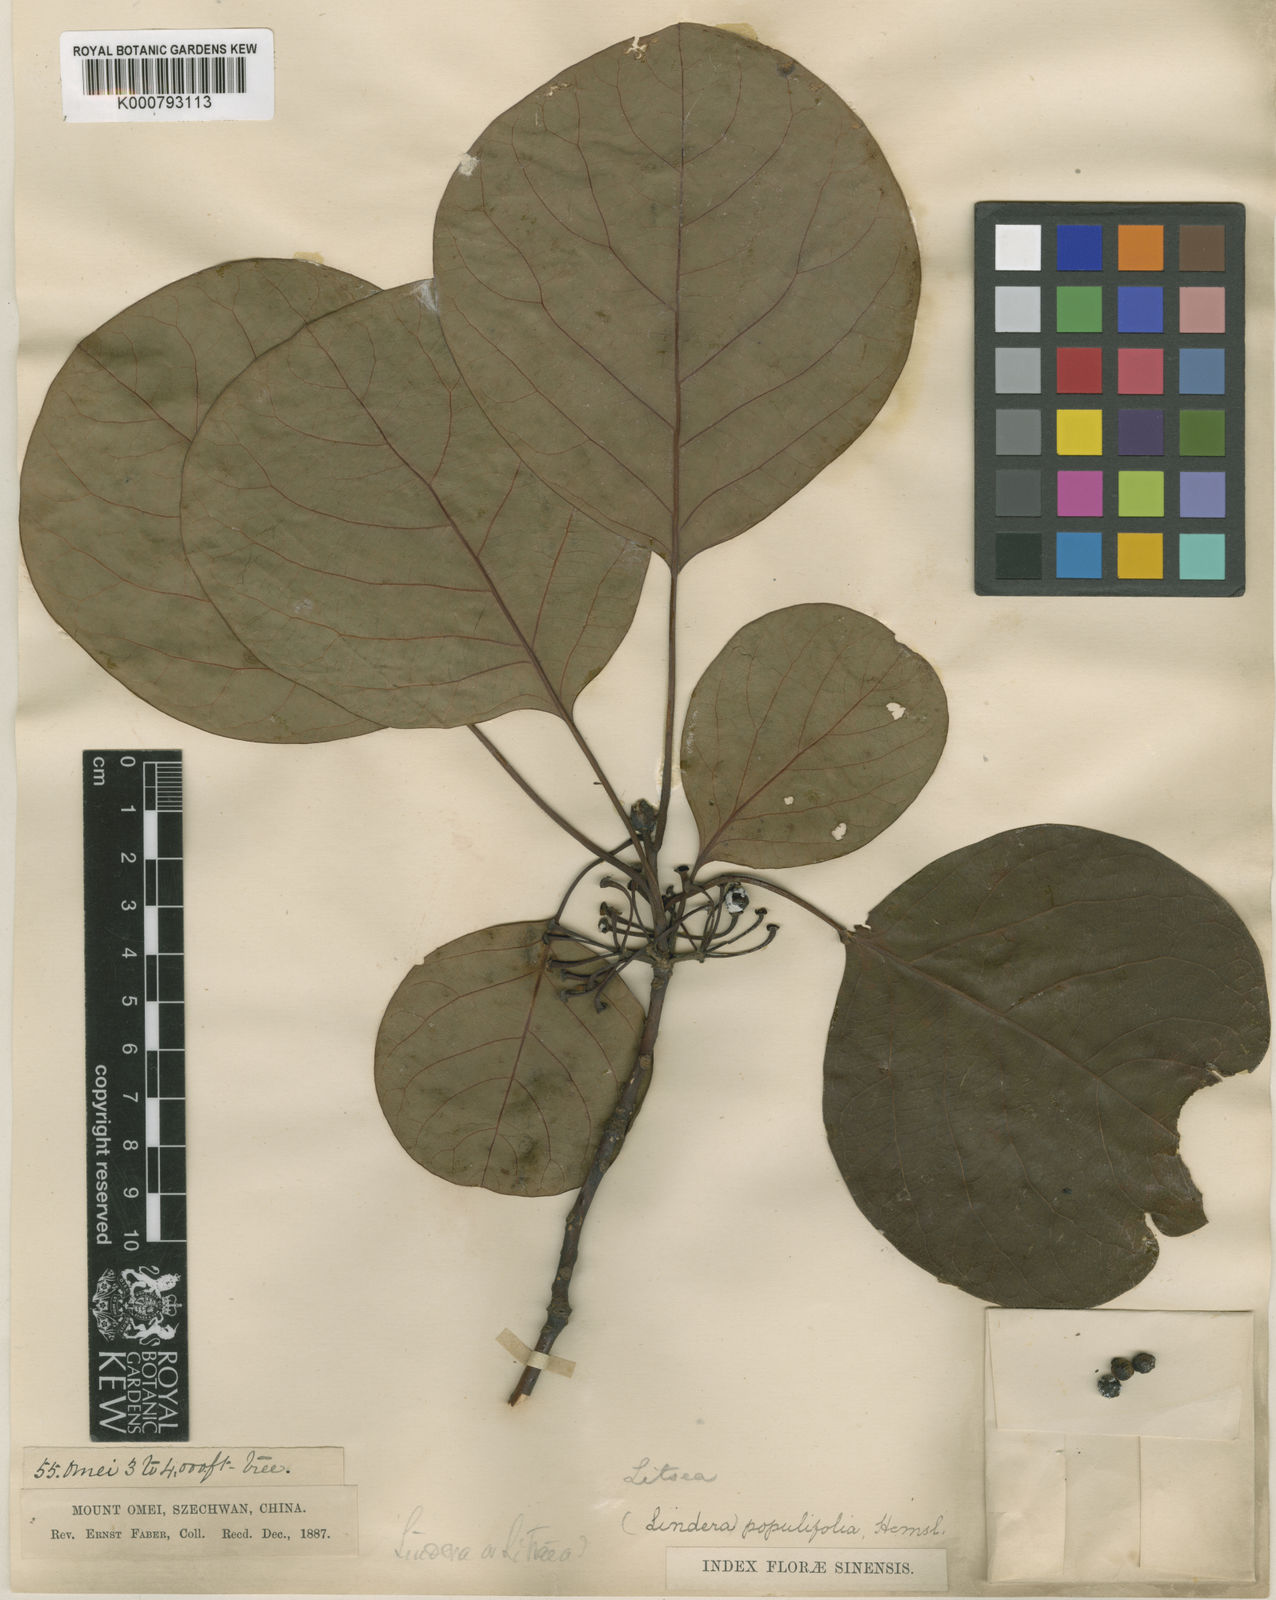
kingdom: Plantae
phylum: Tracheophyta
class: Magnoliopsida
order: Laurales
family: Lauraceae
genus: Litsea
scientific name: Litsea populifolia
